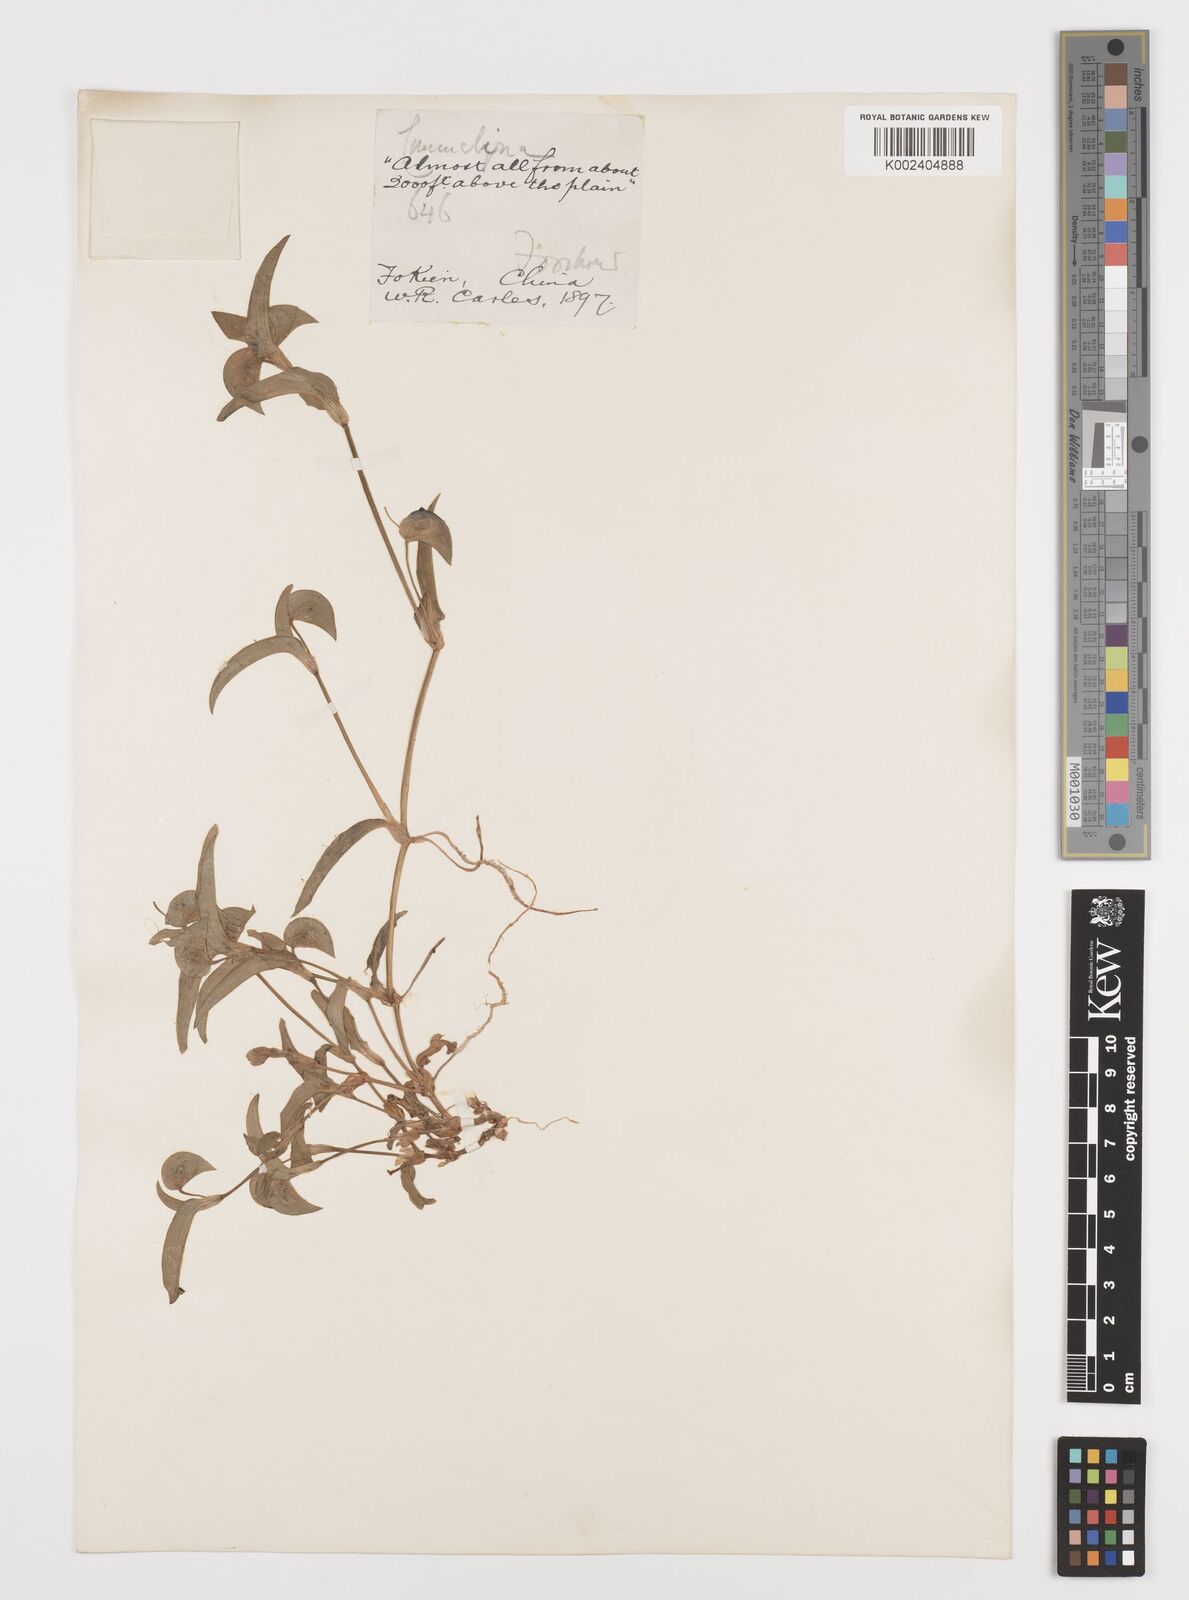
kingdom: Plantae
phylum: Tracheophyta
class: Liliopsida
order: Commelinales
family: Commelinaceae
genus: Commelina
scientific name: Commelina
